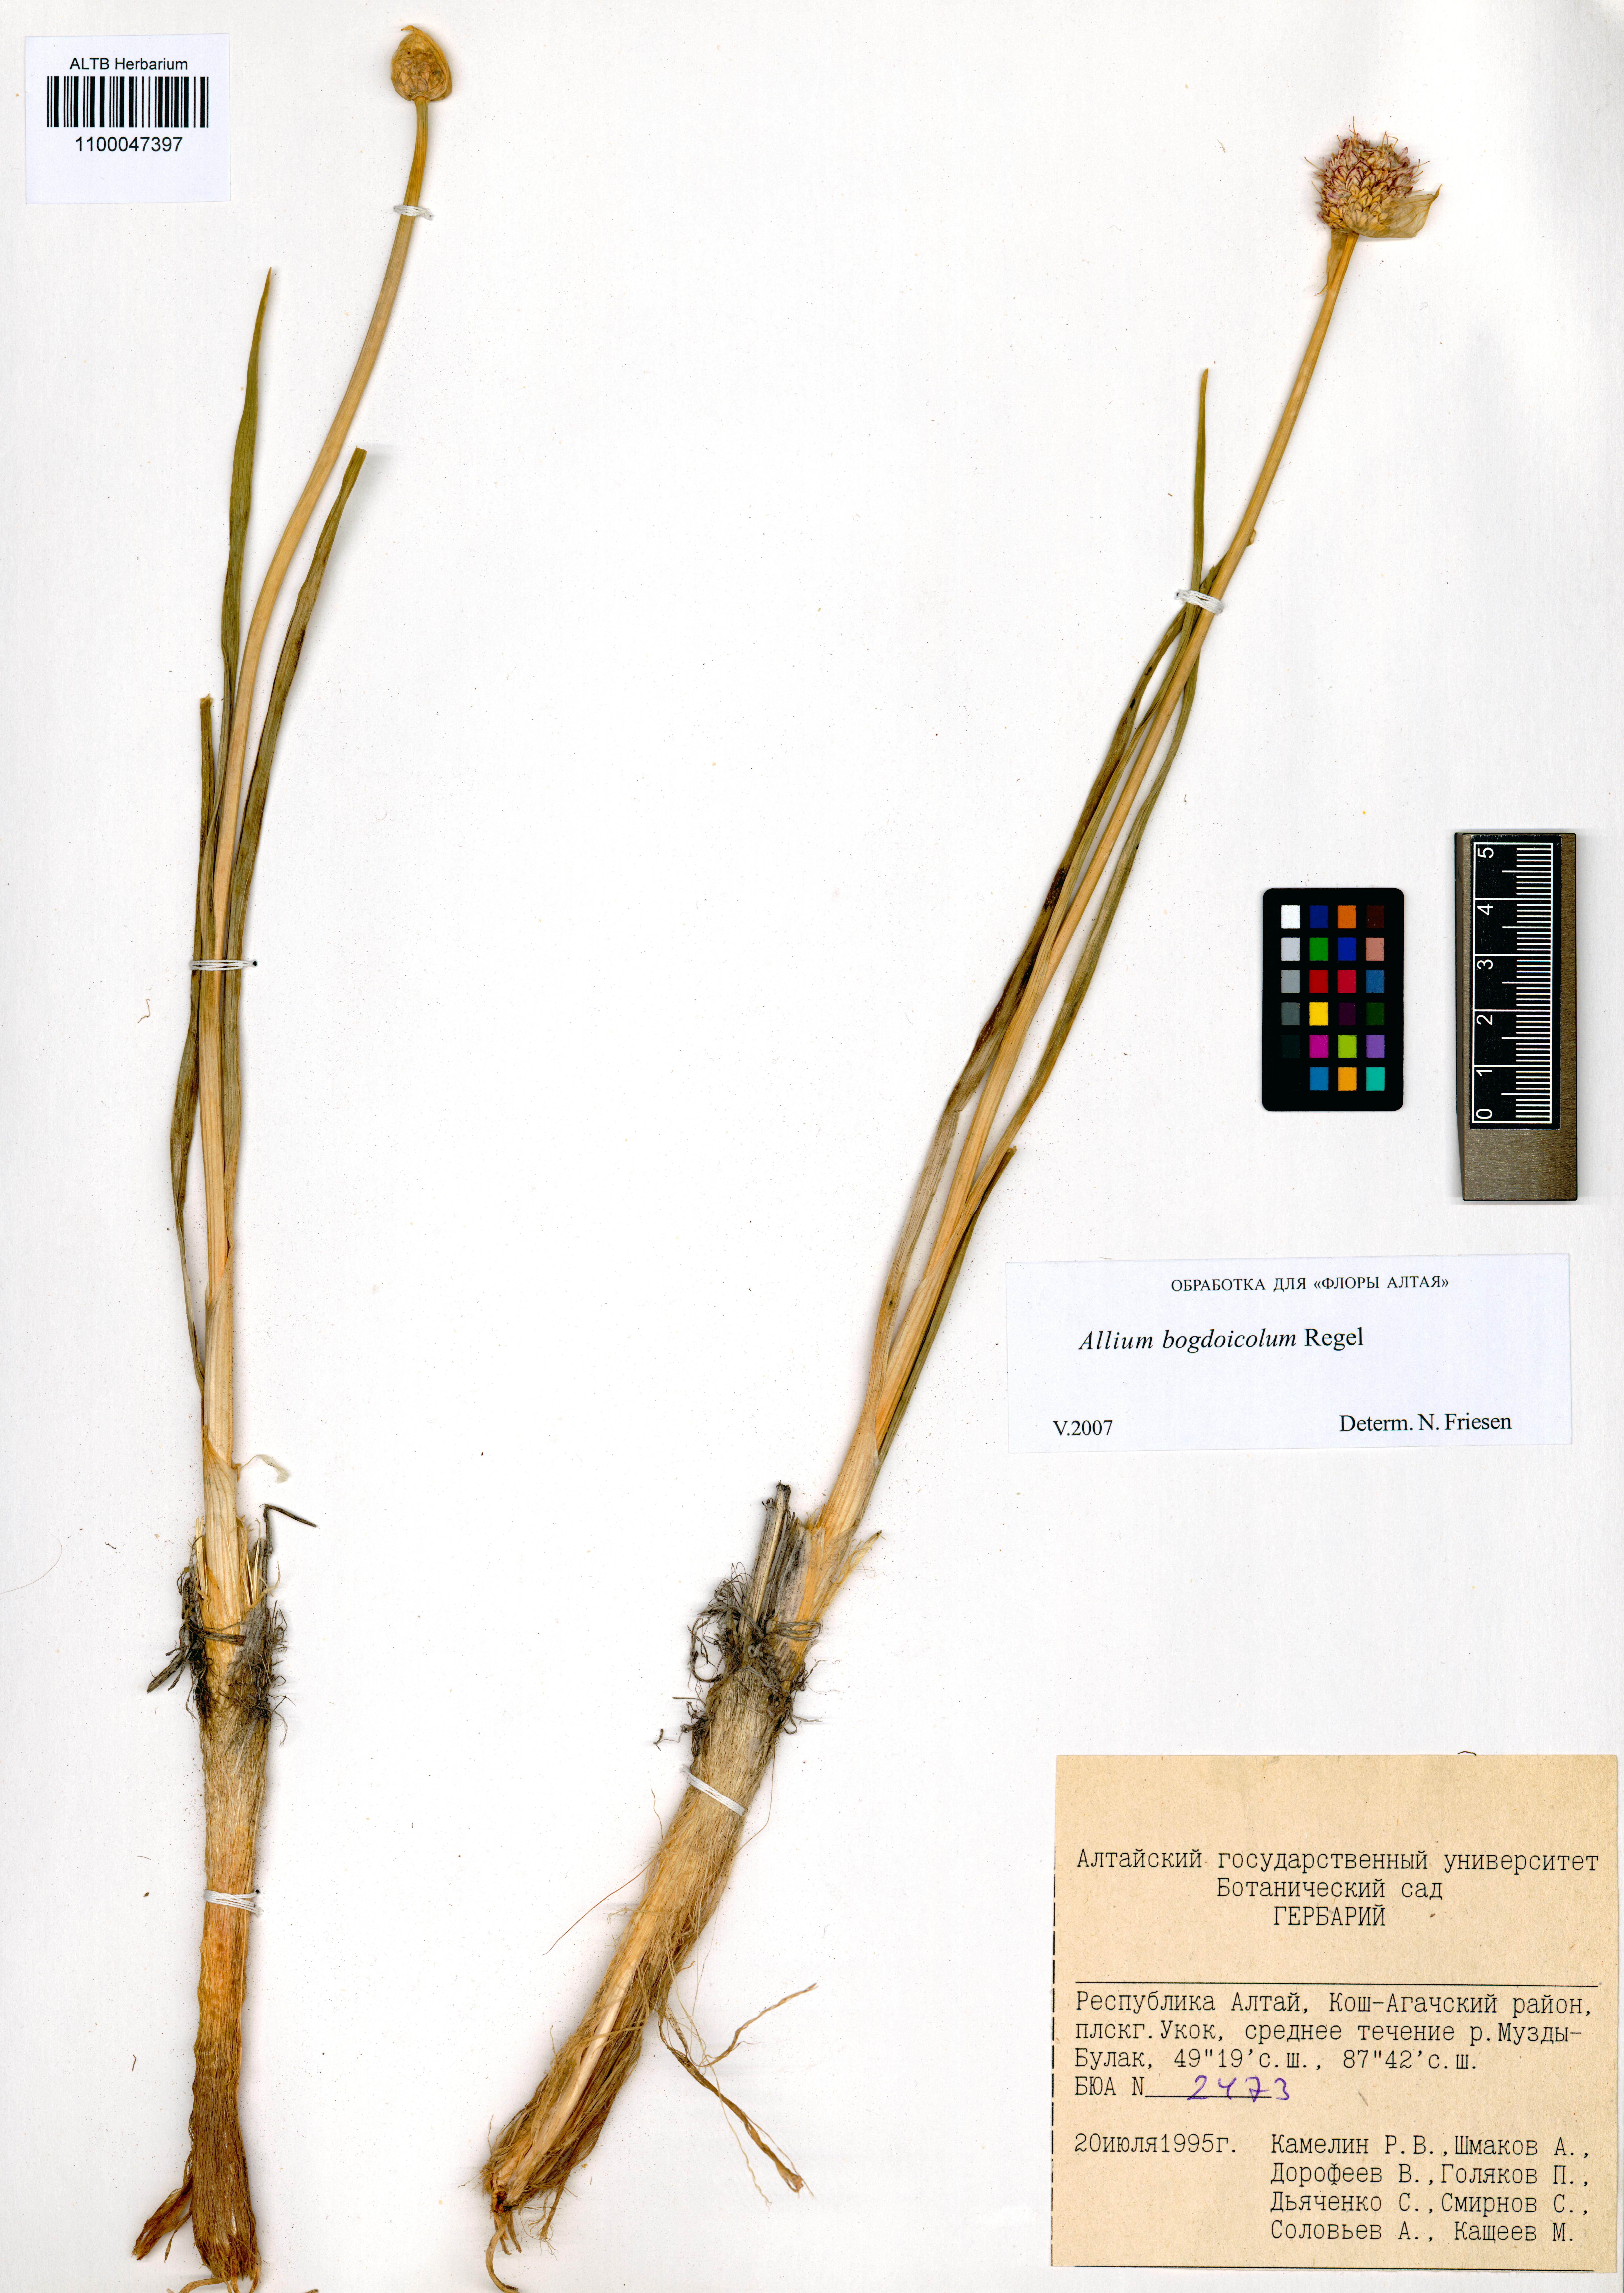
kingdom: Plantae
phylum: Tracheophyta
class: Liliopsida
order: Asparagales
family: Amaryllidaceae
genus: Allium
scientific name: Allium schrenkii
